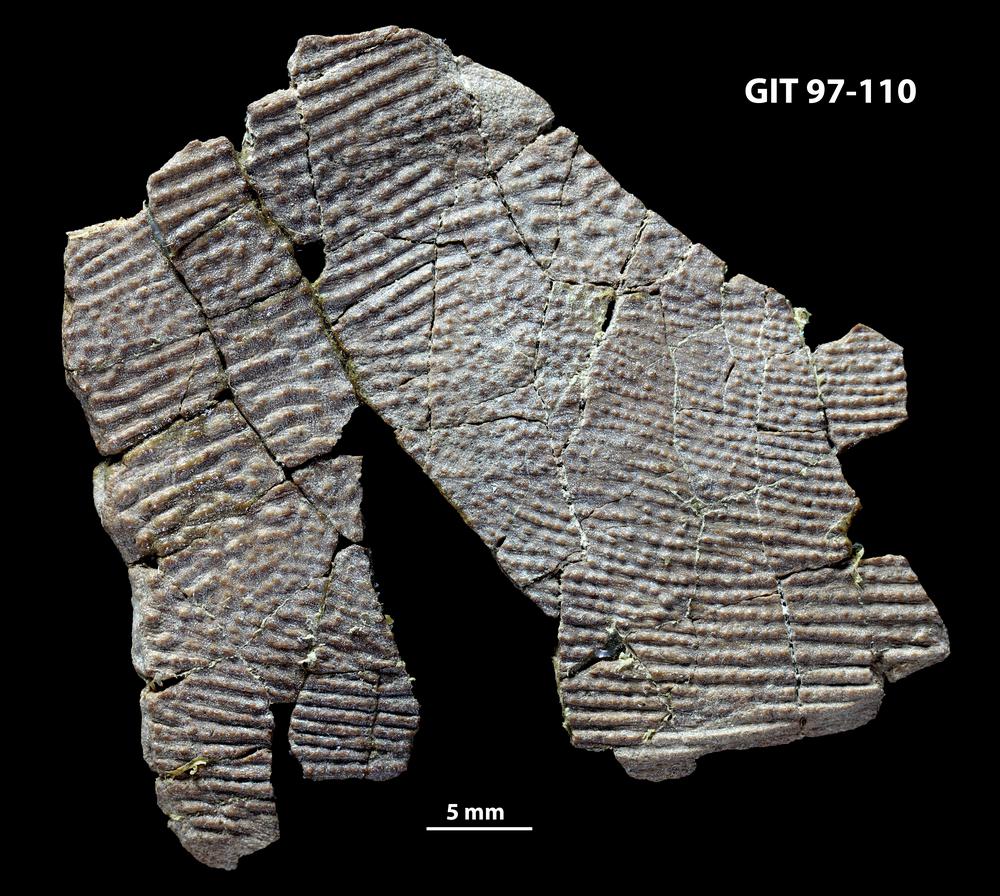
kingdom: Animalia
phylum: Chordata
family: Holonematidae
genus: Holonema
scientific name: Holonema
